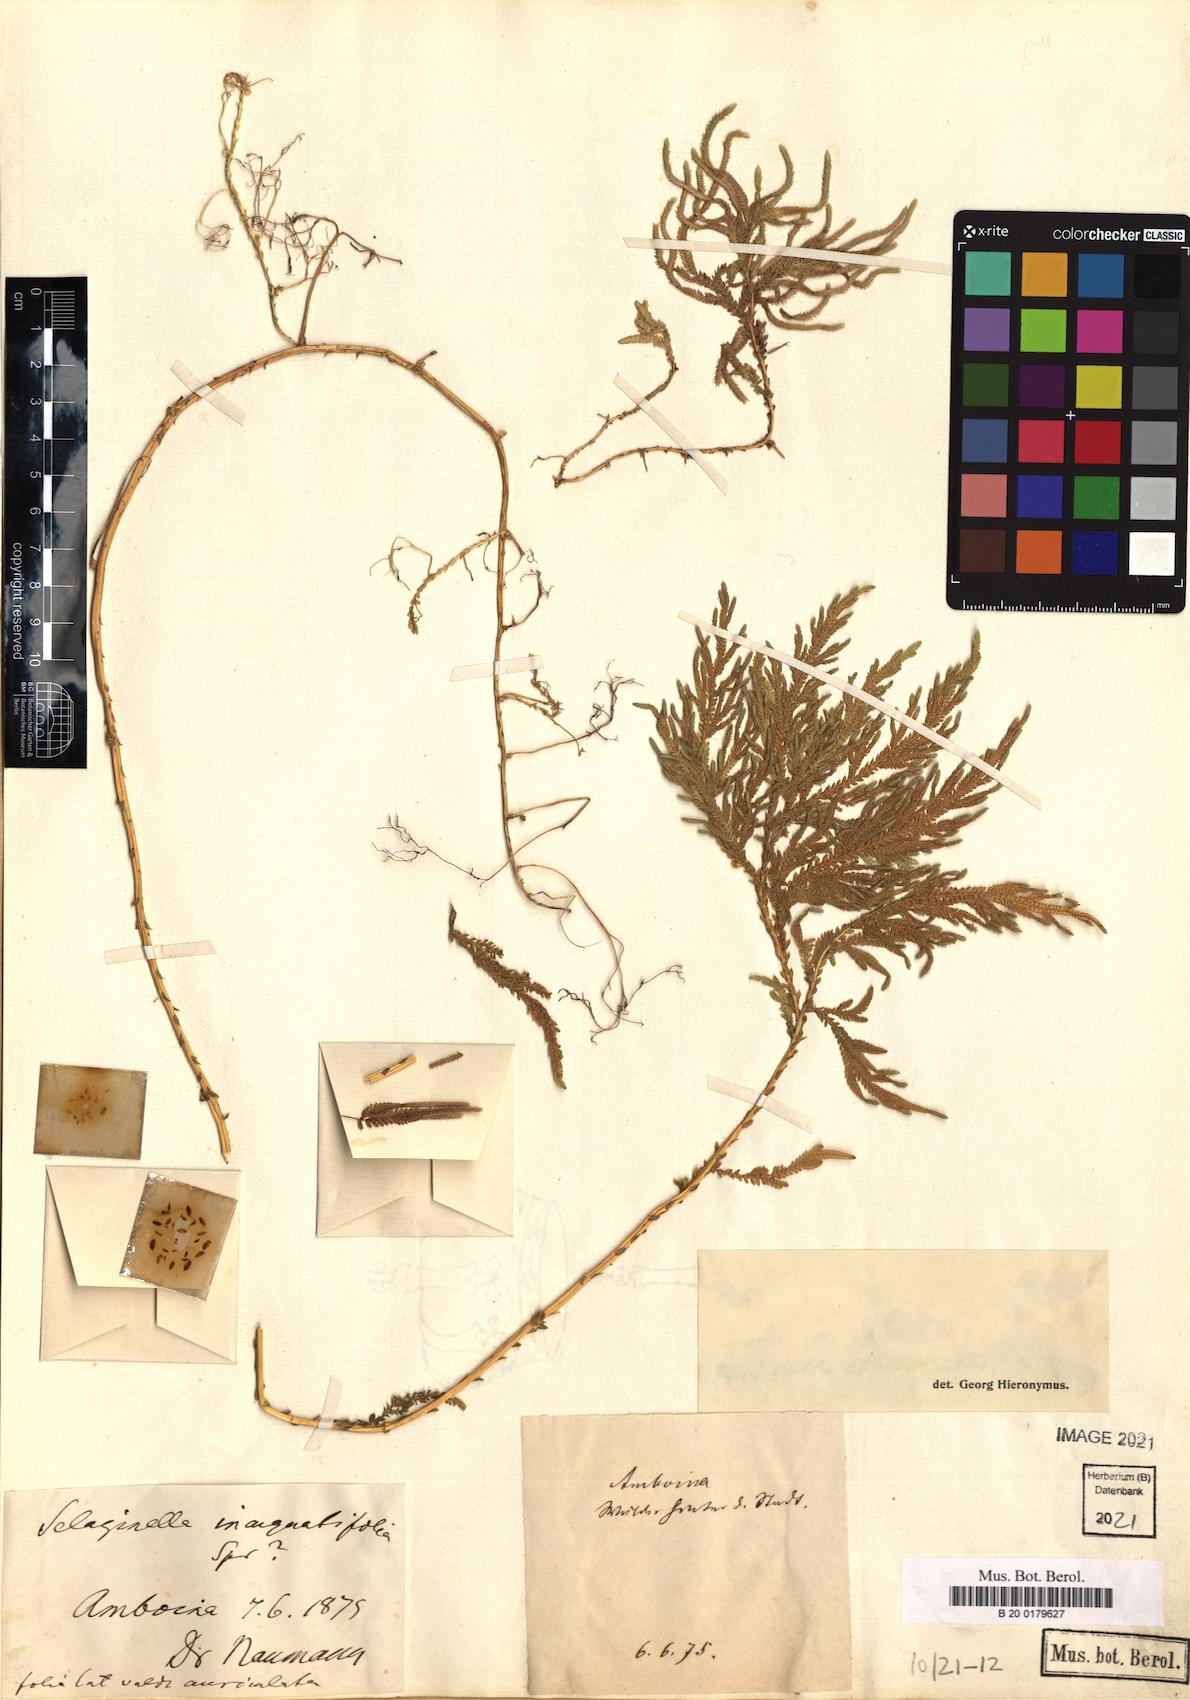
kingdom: Plantae
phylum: Tracheophyta
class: Lycopodiopsida
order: Selaginellales
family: Selaginellaceae
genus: Selaginella
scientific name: Selaginella inaequalifolia
